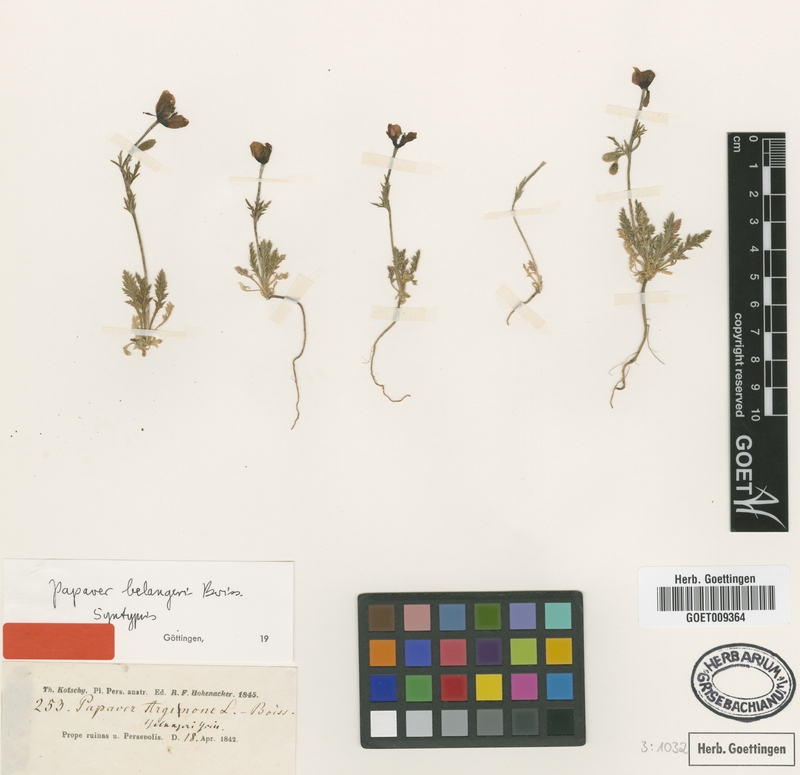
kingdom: Plantae
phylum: Tracheophyta
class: Magnoliopsida
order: Ranunculales
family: Papaveraceae
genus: Roemeria
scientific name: Roemeria minor
